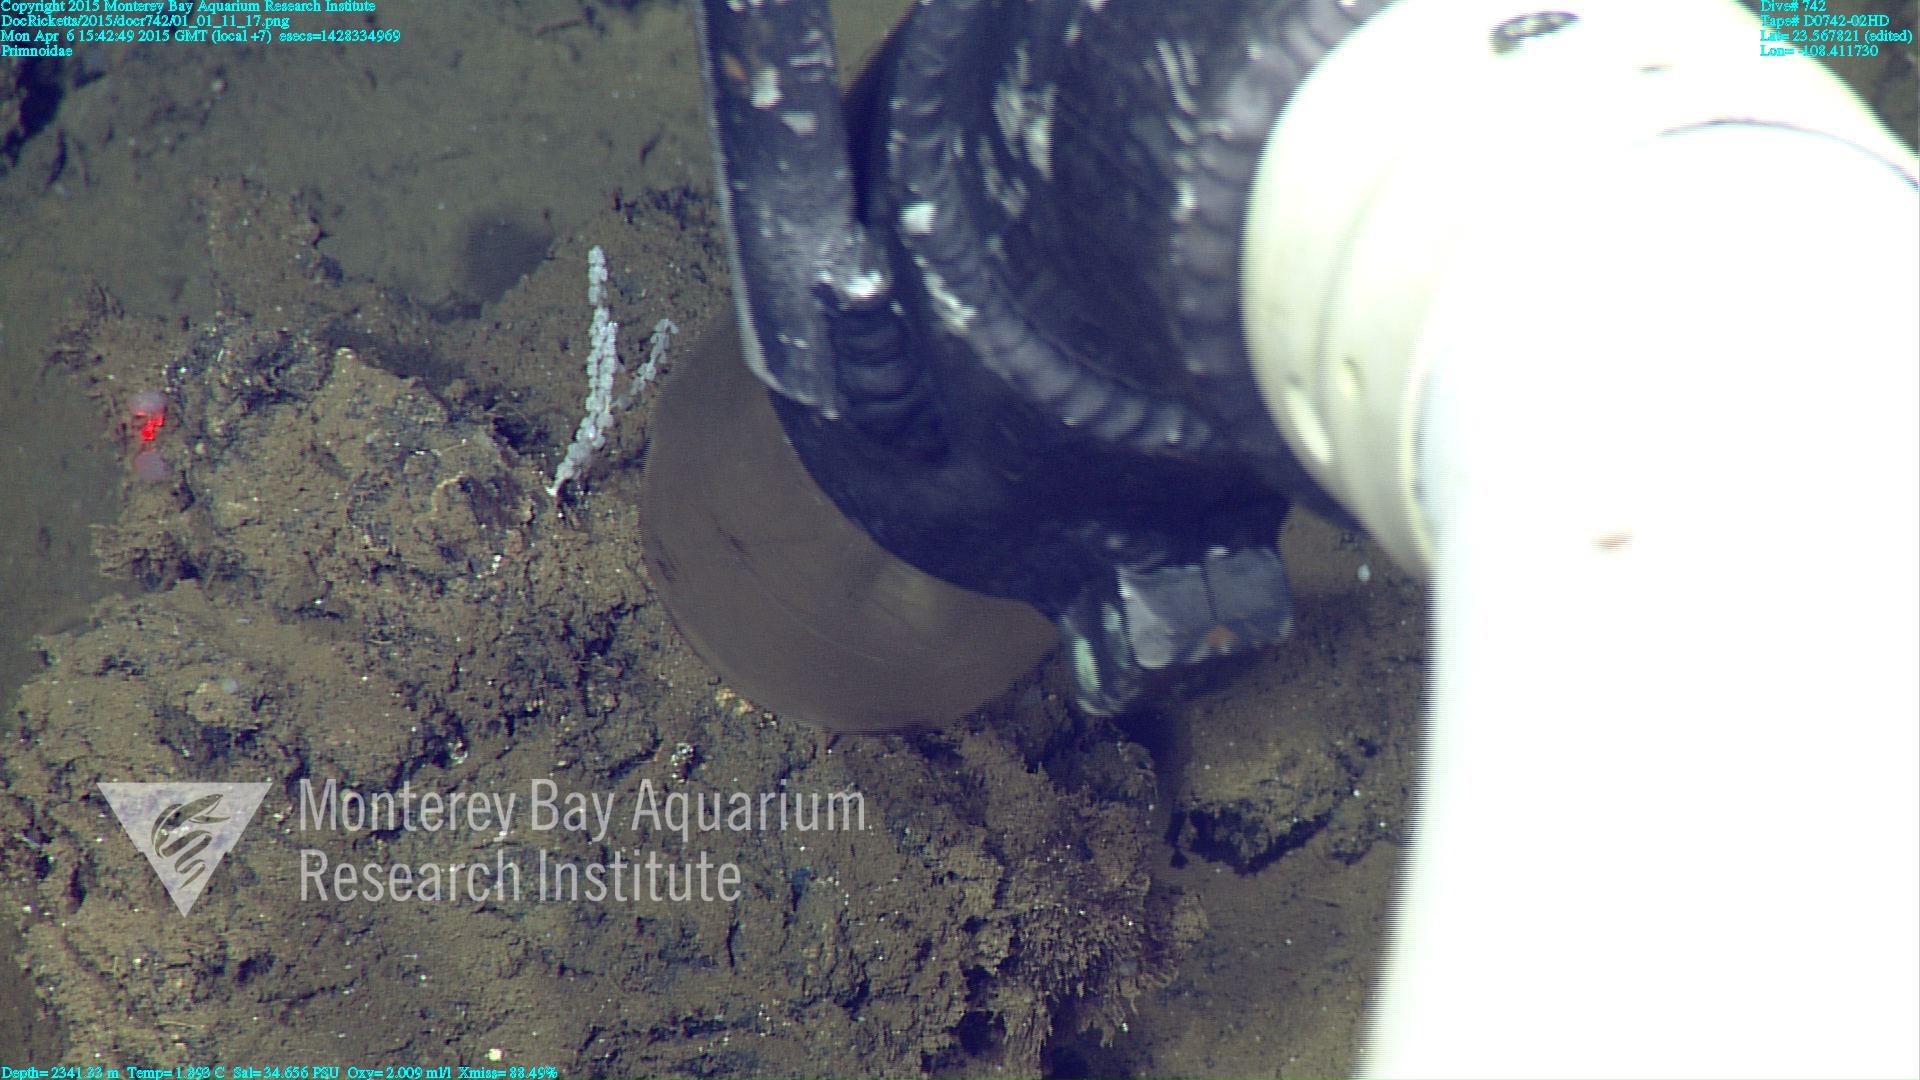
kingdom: Animalia
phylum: Cnidaria
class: Anthozoa
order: Scleralcyonacea
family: Primnoidae
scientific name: Primnoidae
